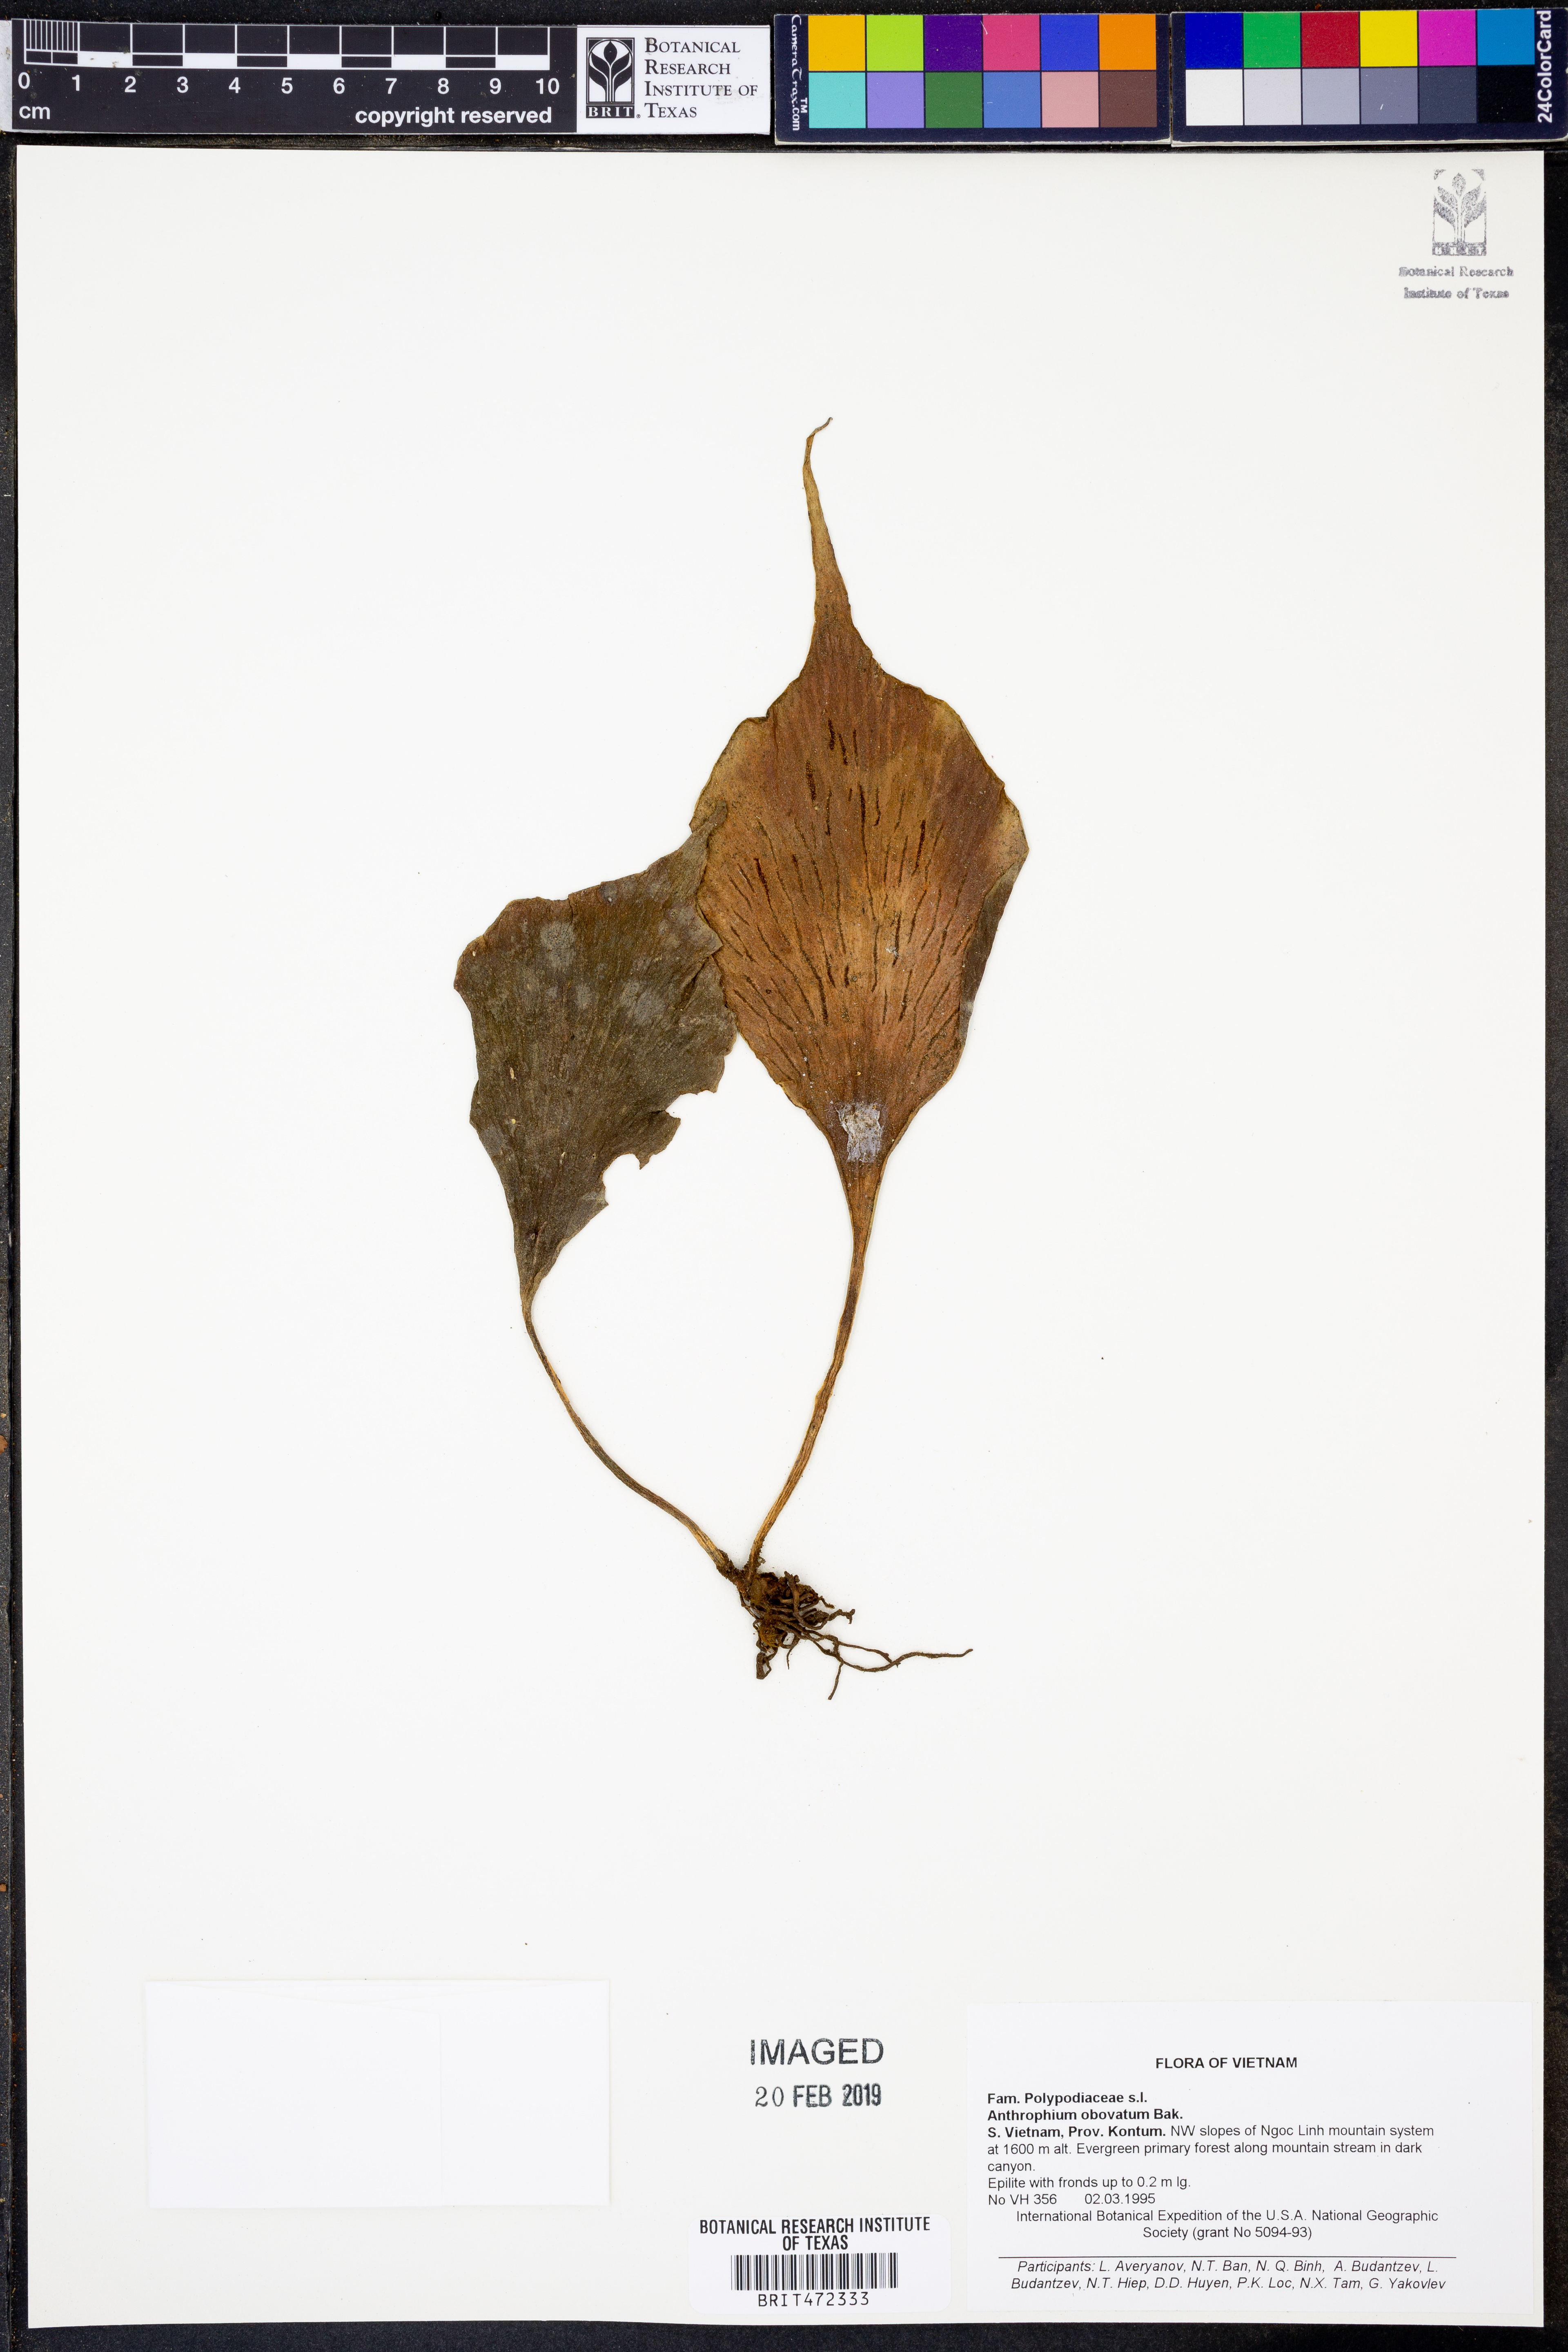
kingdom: Plantae
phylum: Tracheophyta
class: Polypodiopsida
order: Polypodiales
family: Pteridaceae
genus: Antrophyum
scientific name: Antrophyum obovatum
